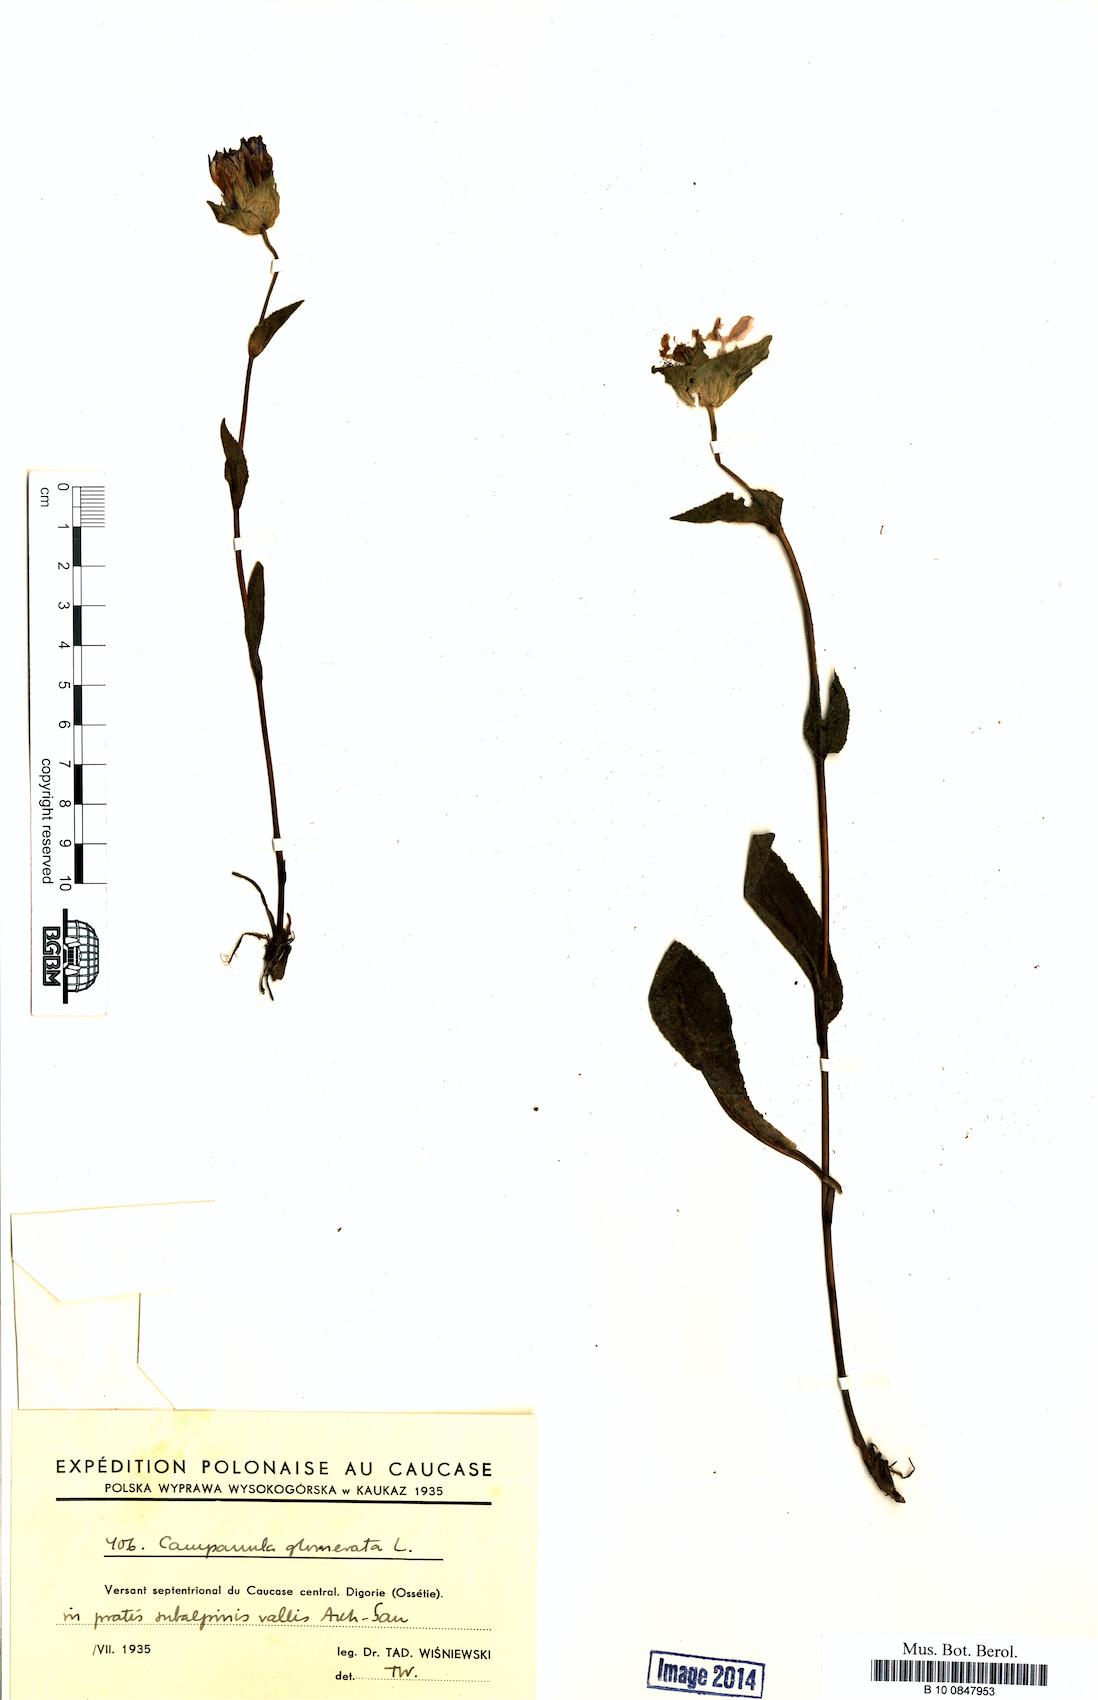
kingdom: Plantae
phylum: Tracheophyta
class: Magnoliopsida
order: Asterales
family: Campanulaceae
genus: Campanula
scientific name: Campanula glomerata
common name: Clustered bellflower
